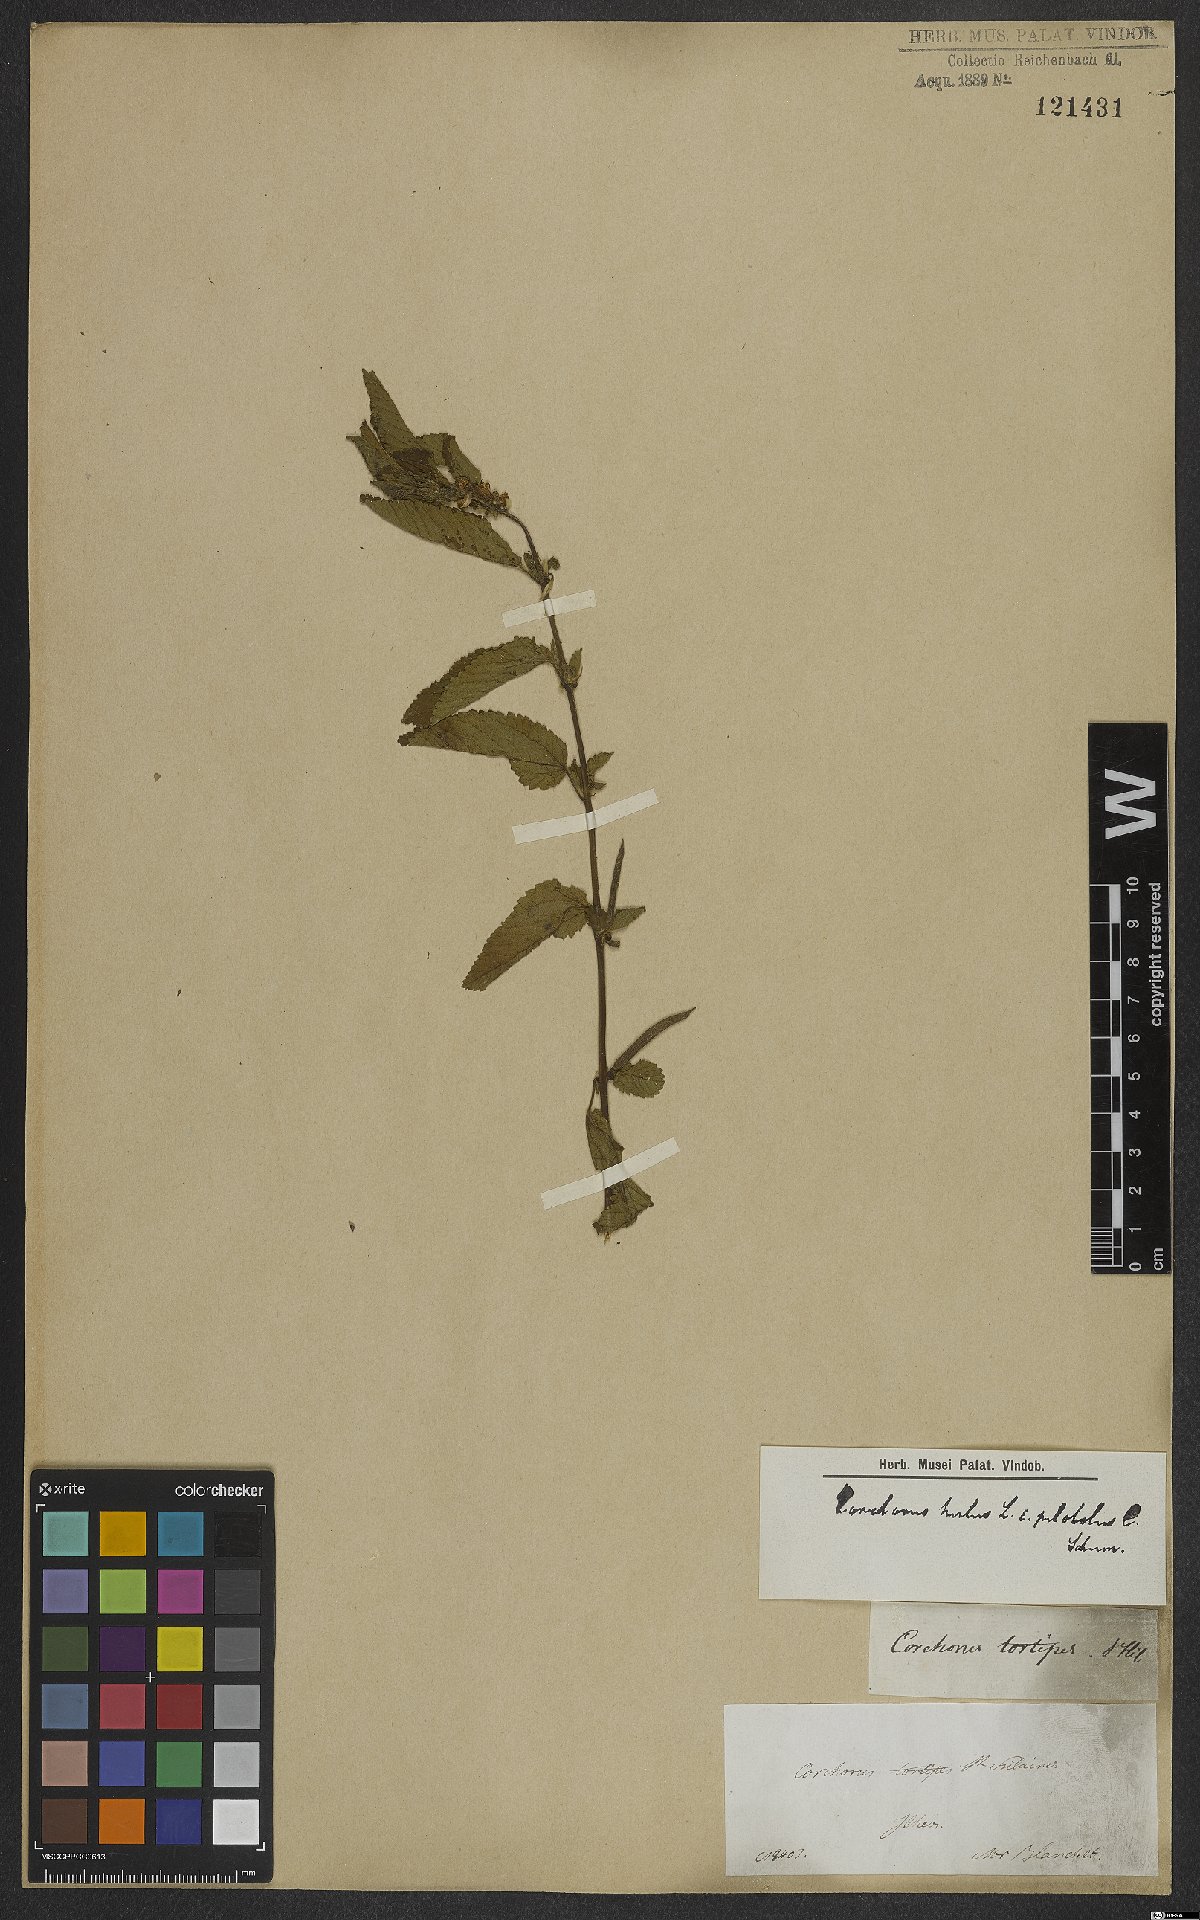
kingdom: Plantae
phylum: Tracheophyta
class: Magnoliopsida
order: Malvales
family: Malvaceae
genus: Corchorus
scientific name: Corchorus hirtus
